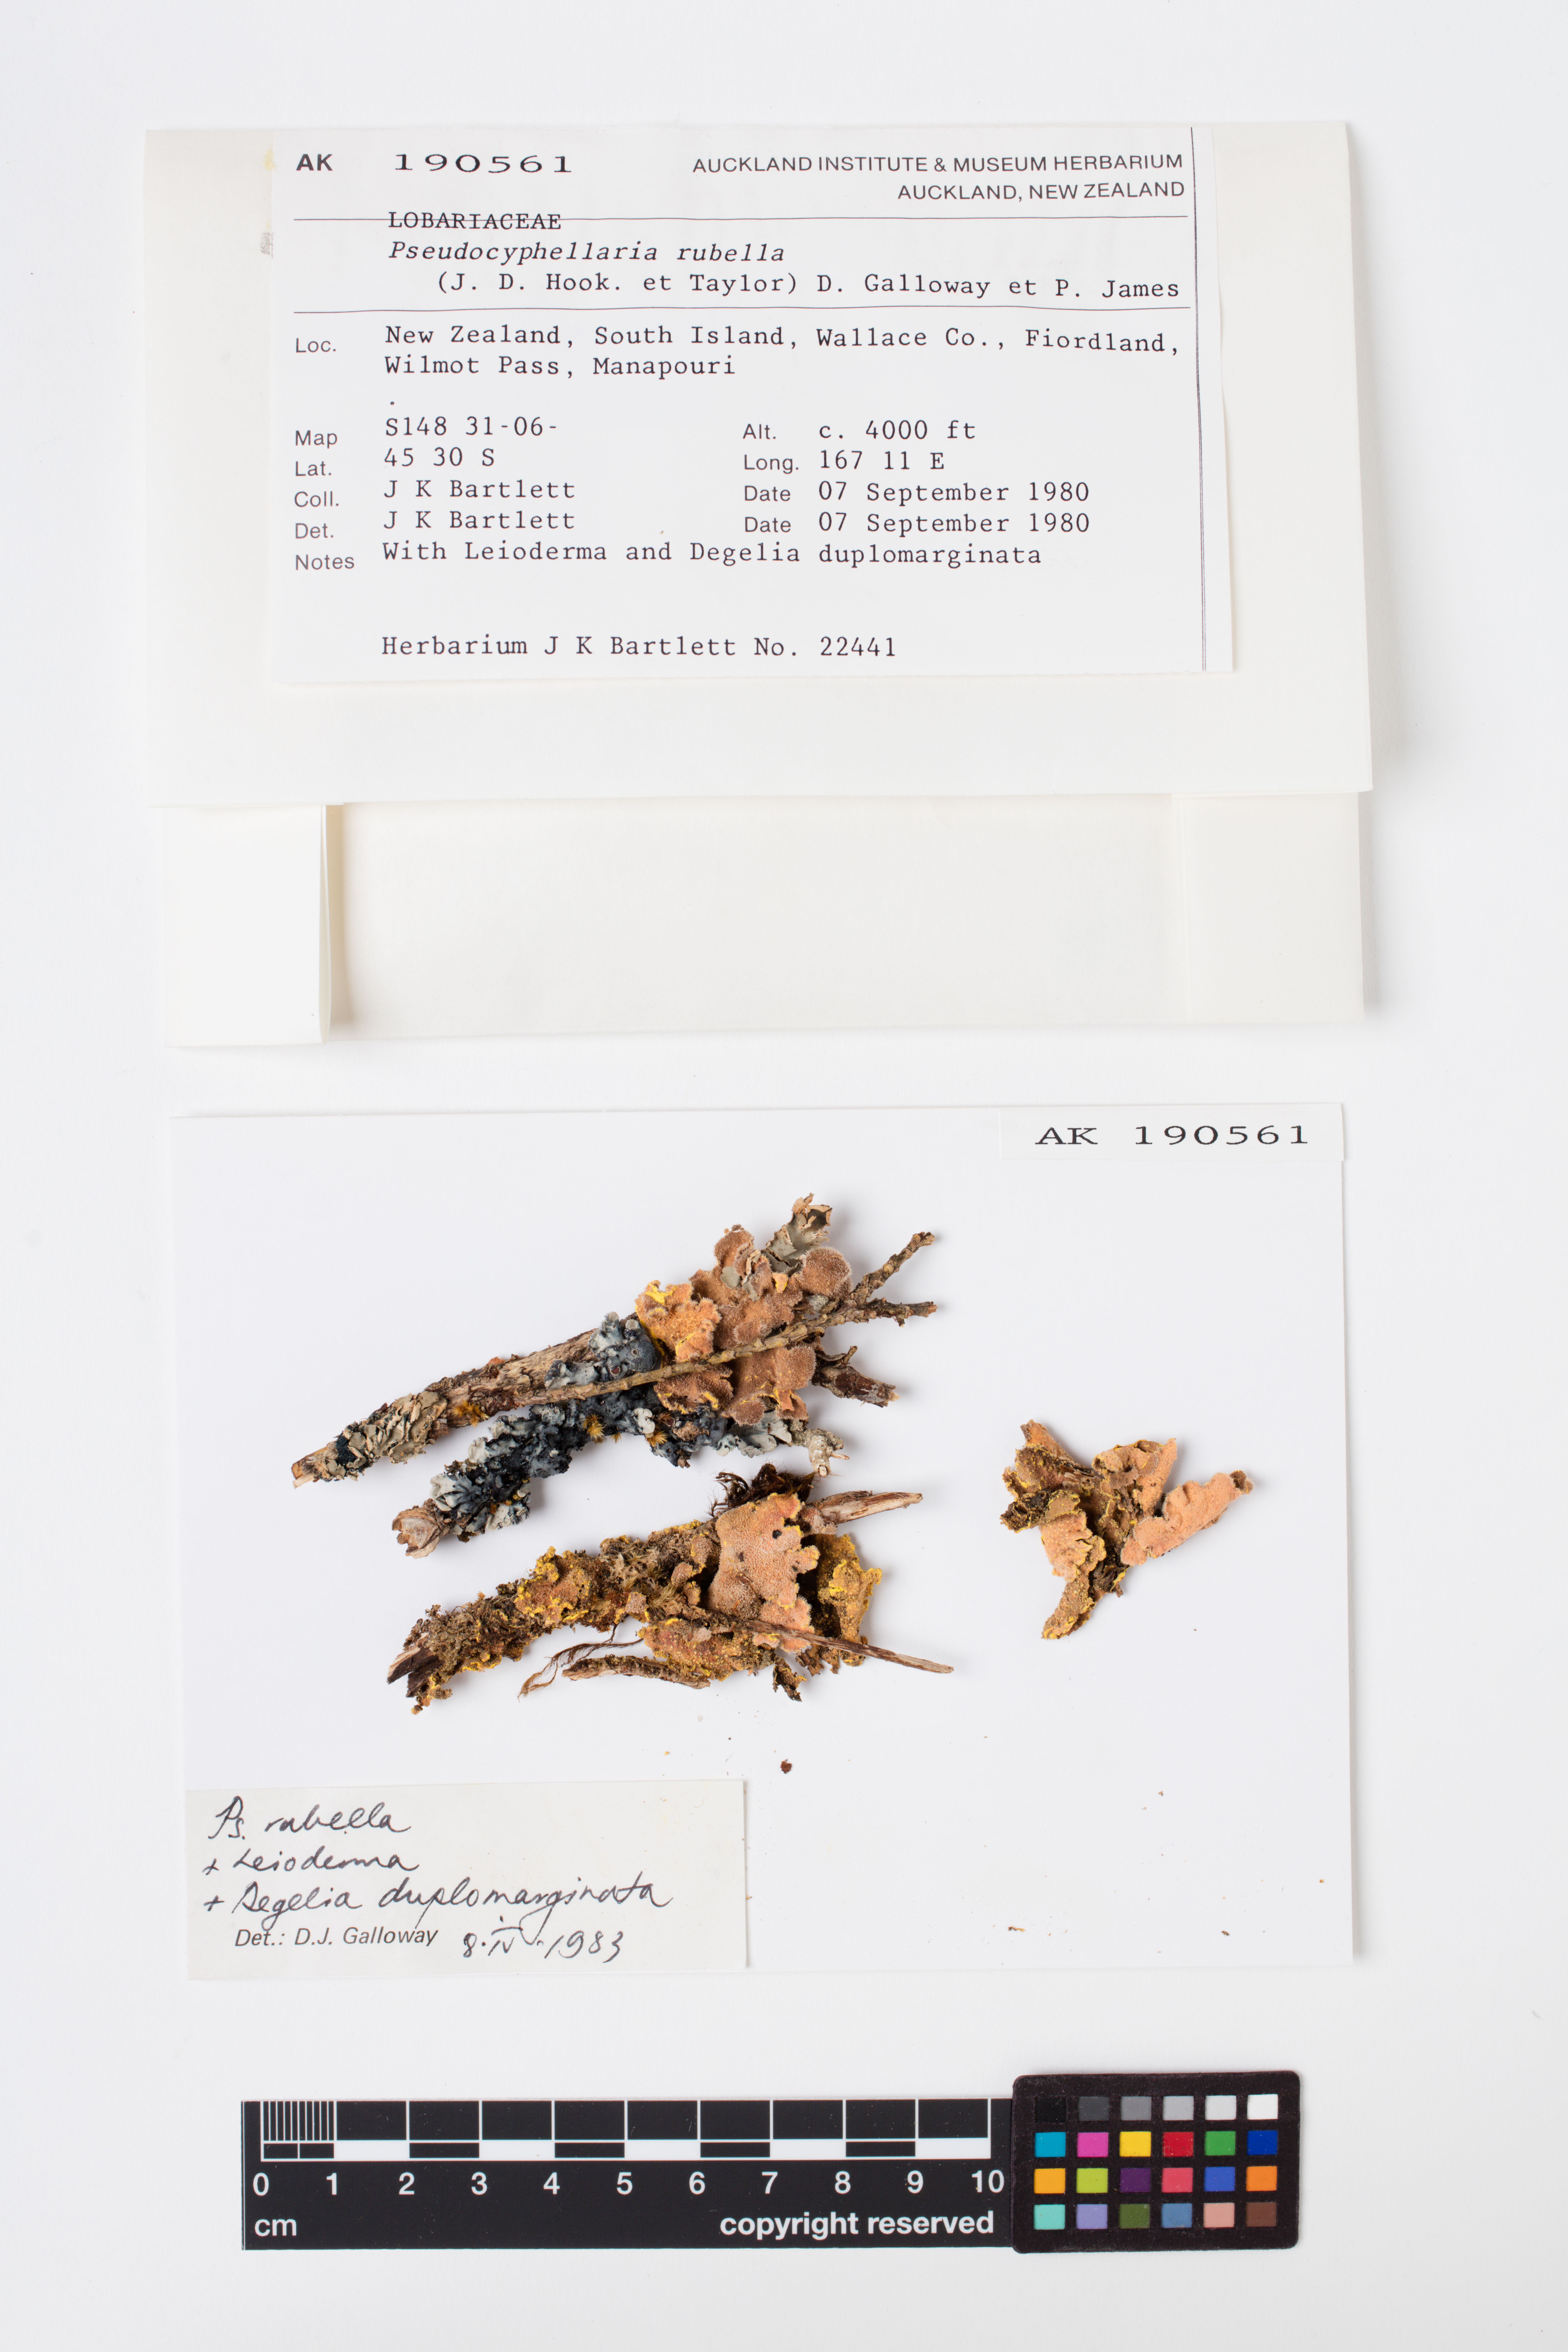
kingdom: Fungi
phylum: Ascomycota
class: Lecanoromycetes
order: Peltigerales
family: Lobariaceae
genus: Pseudocyphellaria
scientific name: Pseudocyphellaria rubella
